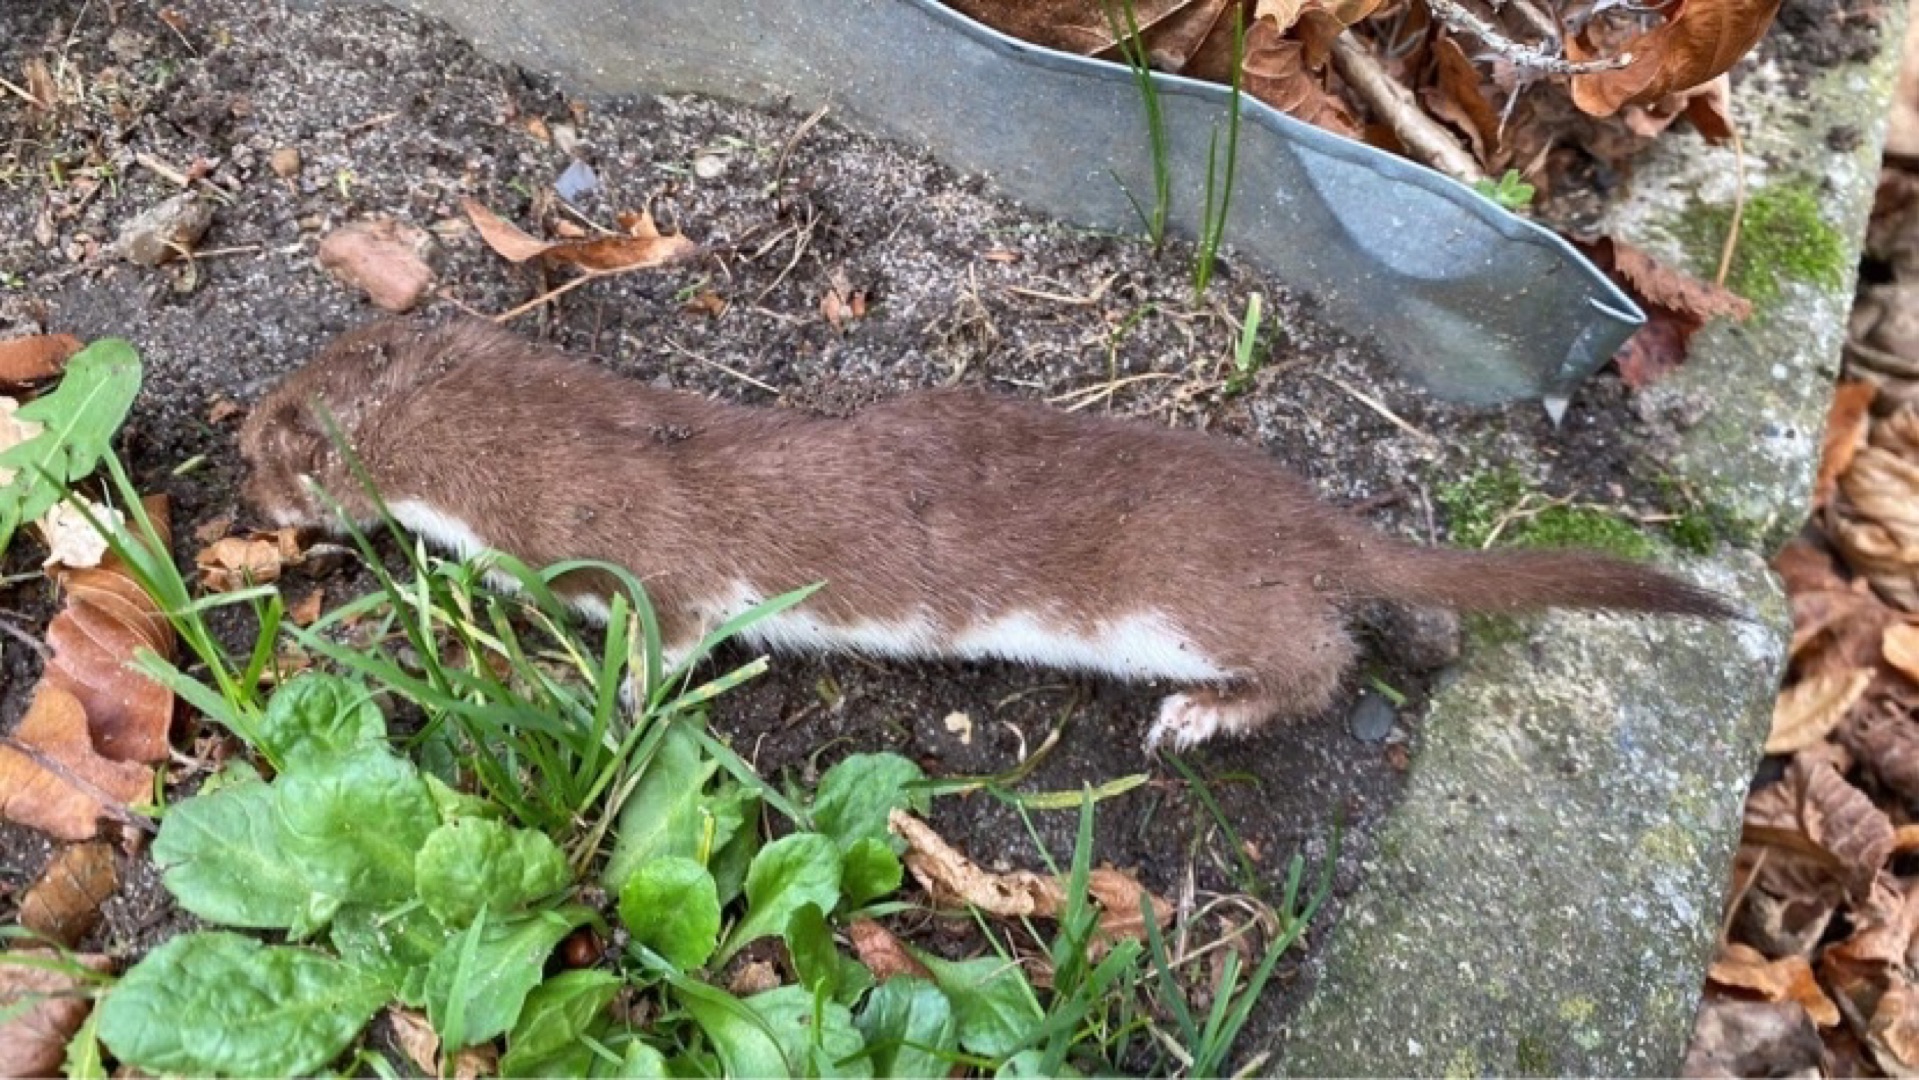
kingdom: Animalia
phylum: Chordata
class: Mammalia
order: Carnivora
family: Mustelidae
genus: Mustela
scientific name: Mustela nivalis
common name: Brud
